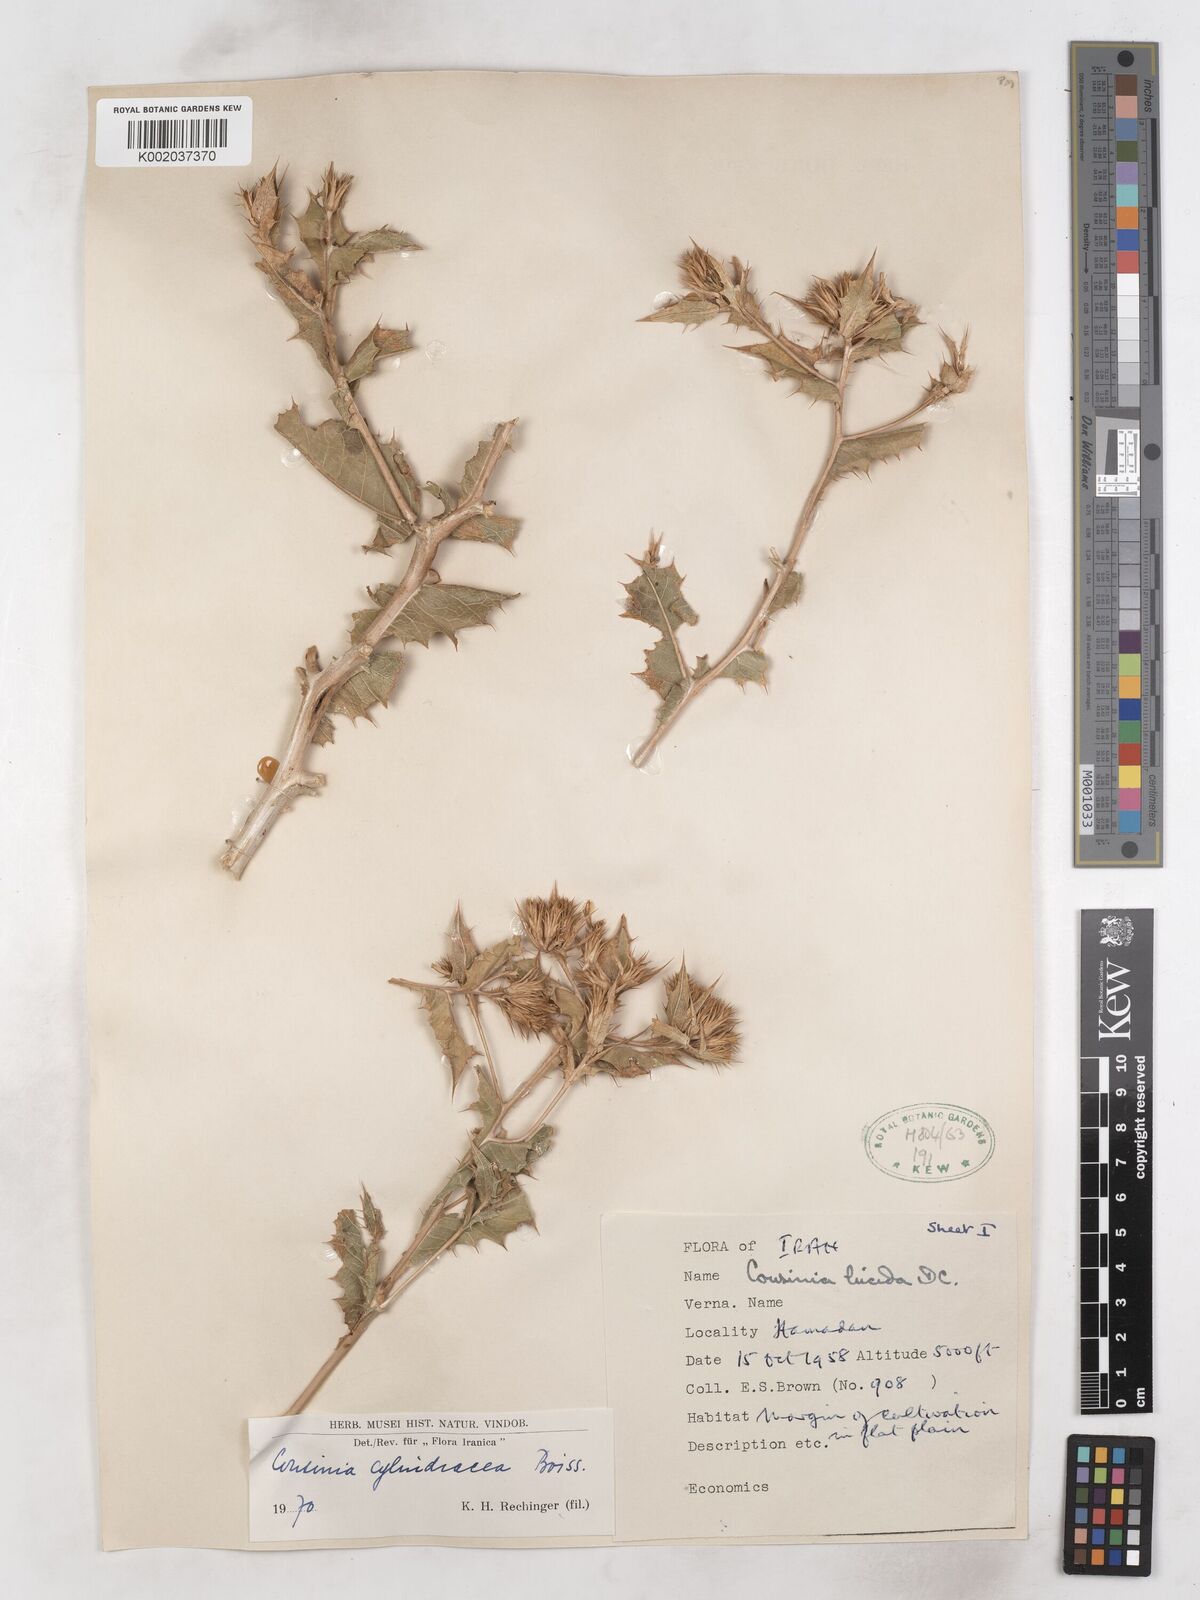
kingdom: Plantae
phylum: Tracheophyta
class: Magnoliopsida
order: Asterales
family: Asteraceae
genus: Cousinia
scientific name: Cousinia cylindracea
